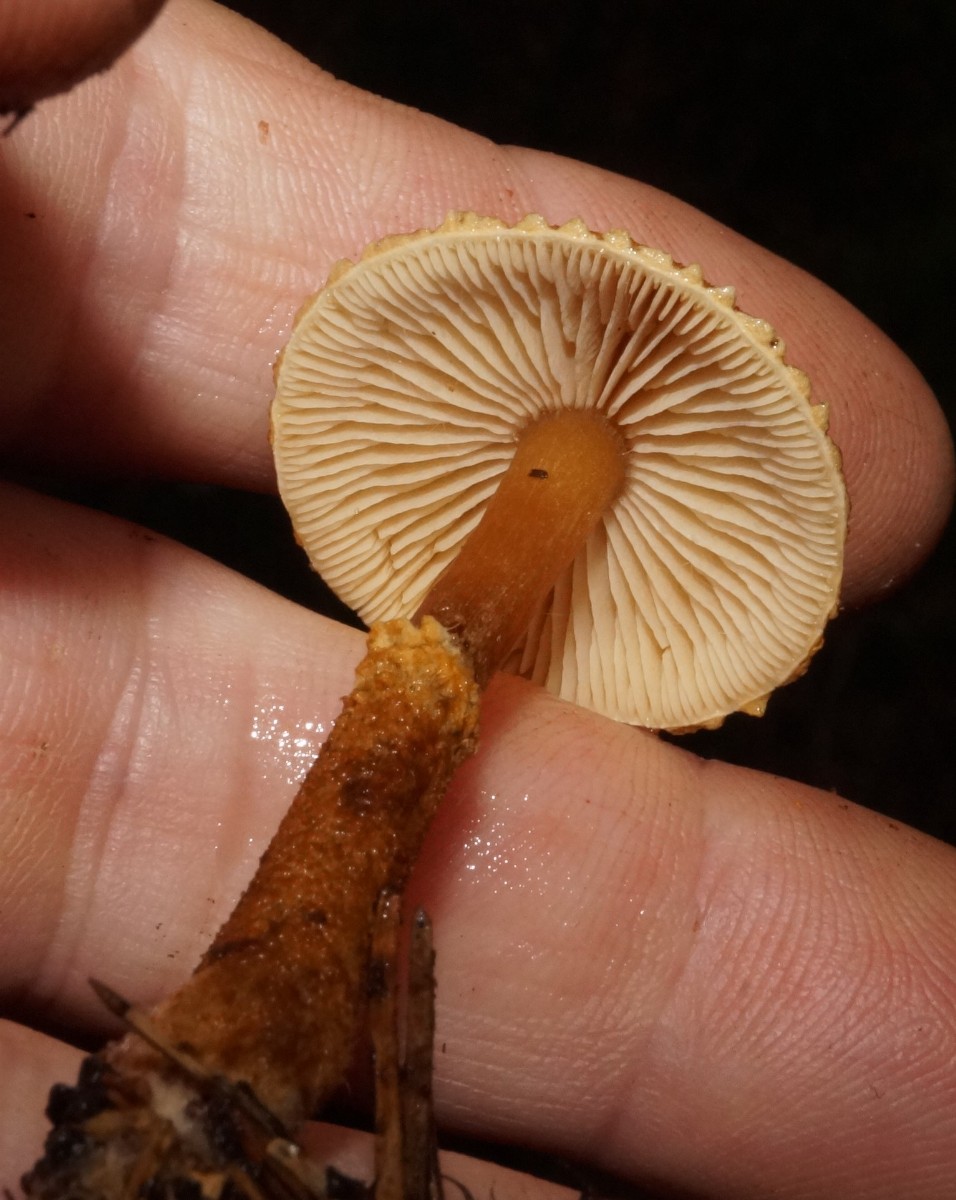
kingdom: Fungi
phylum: Basidiomycota
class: Agaricomycetes
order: Agaricales
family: Tricholomataceae
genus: Cystoderma
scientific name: Cystoderma jasonis
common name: gulkødet grynhat
